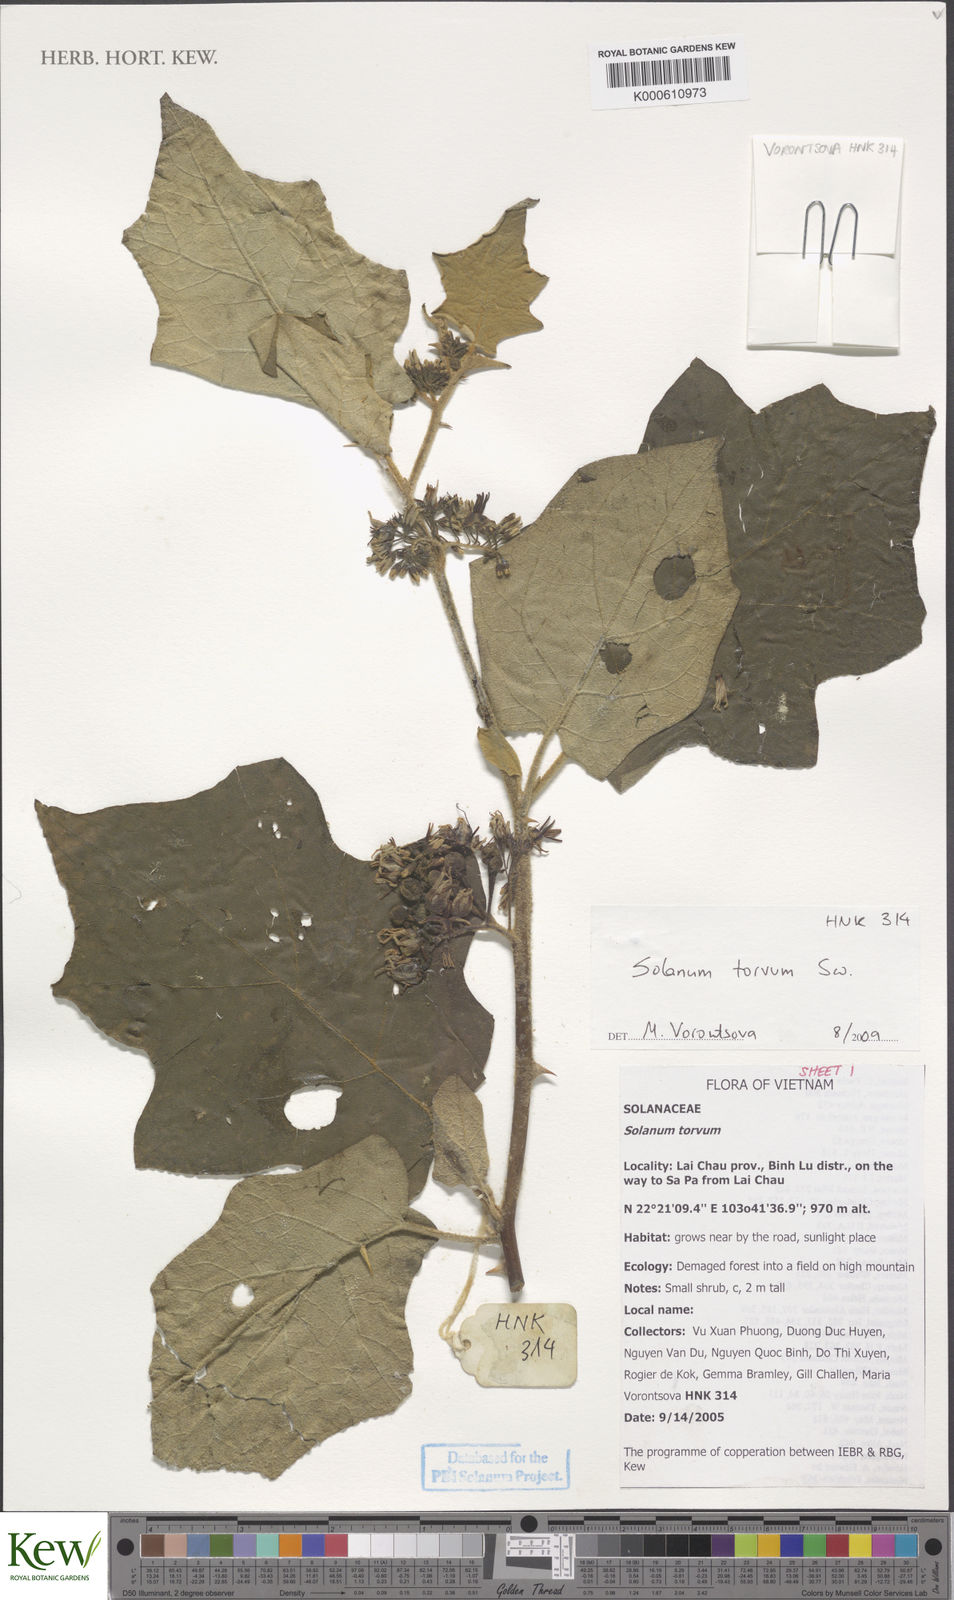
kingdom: Plantae
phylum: Tracheophyta
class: Magnoliopsida
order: Solanales
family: Solanaceae
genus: Solanum
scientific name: Solanum torvum
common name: Turkey berry
